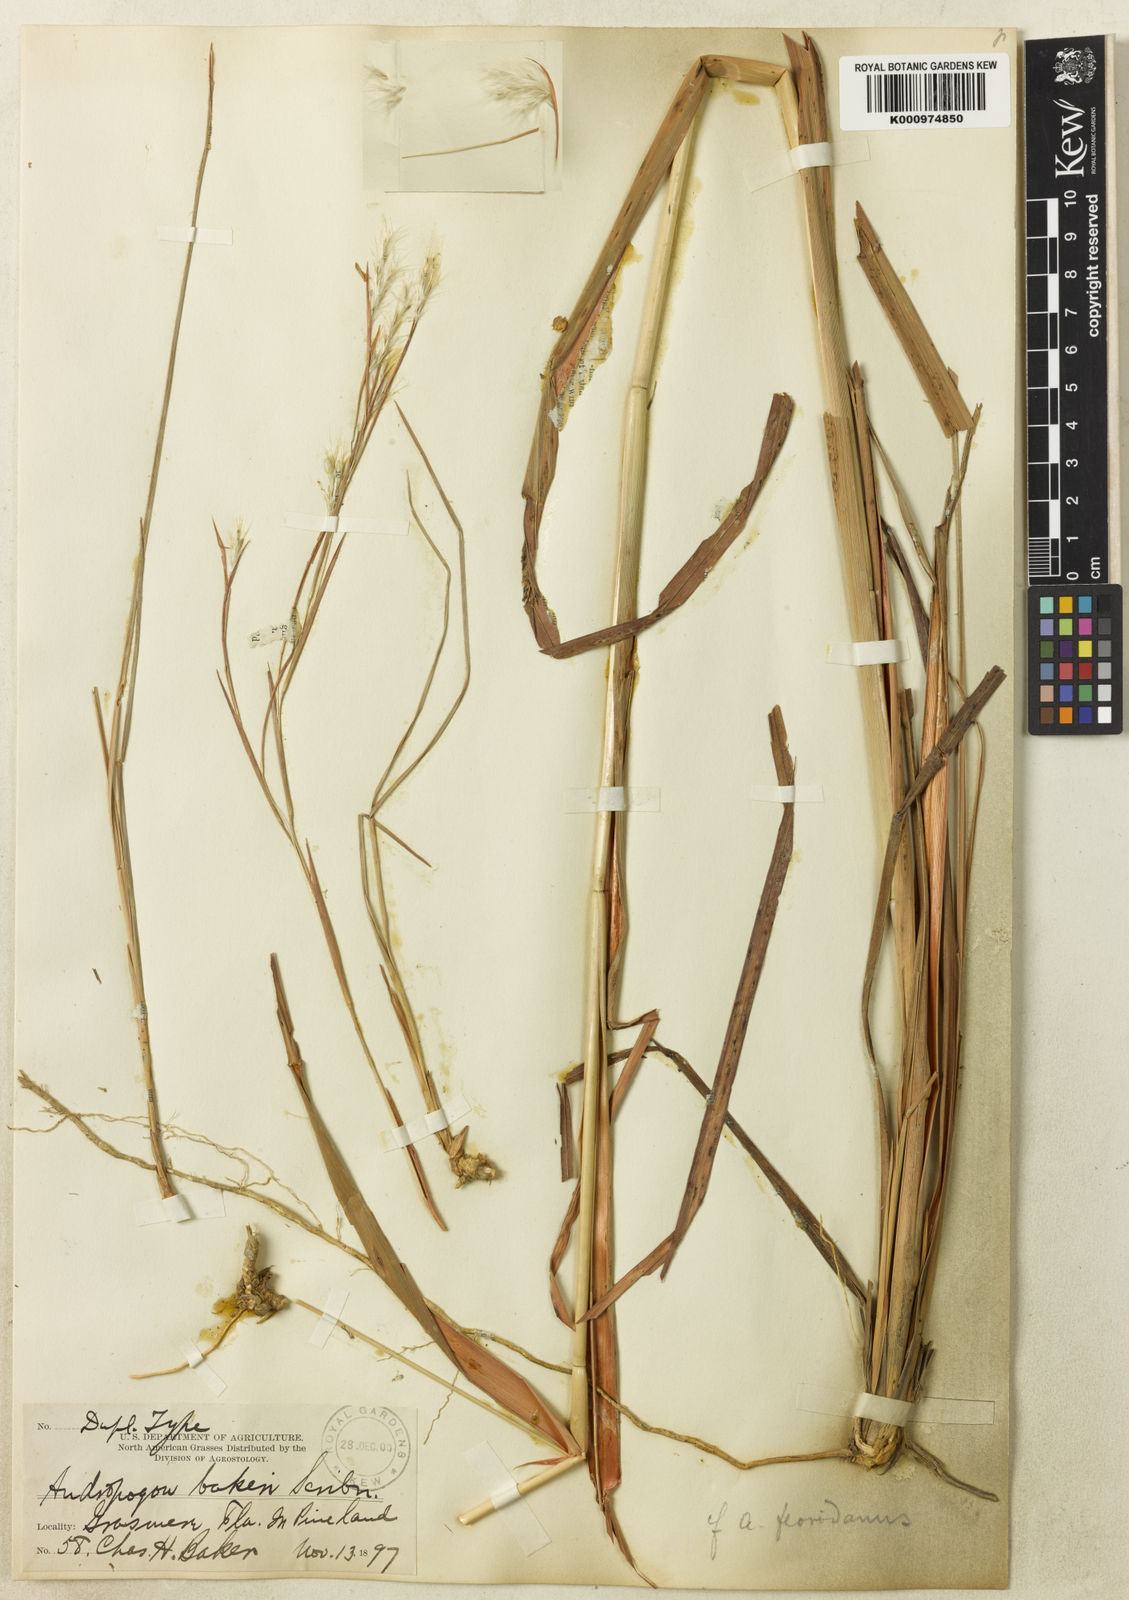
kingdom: Plantae
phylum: Tracheophyta
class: Liliopsida
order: Poales
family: Poaceae
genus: Andropogon
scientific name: Andropogon floridanus
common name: Florida bluestem
